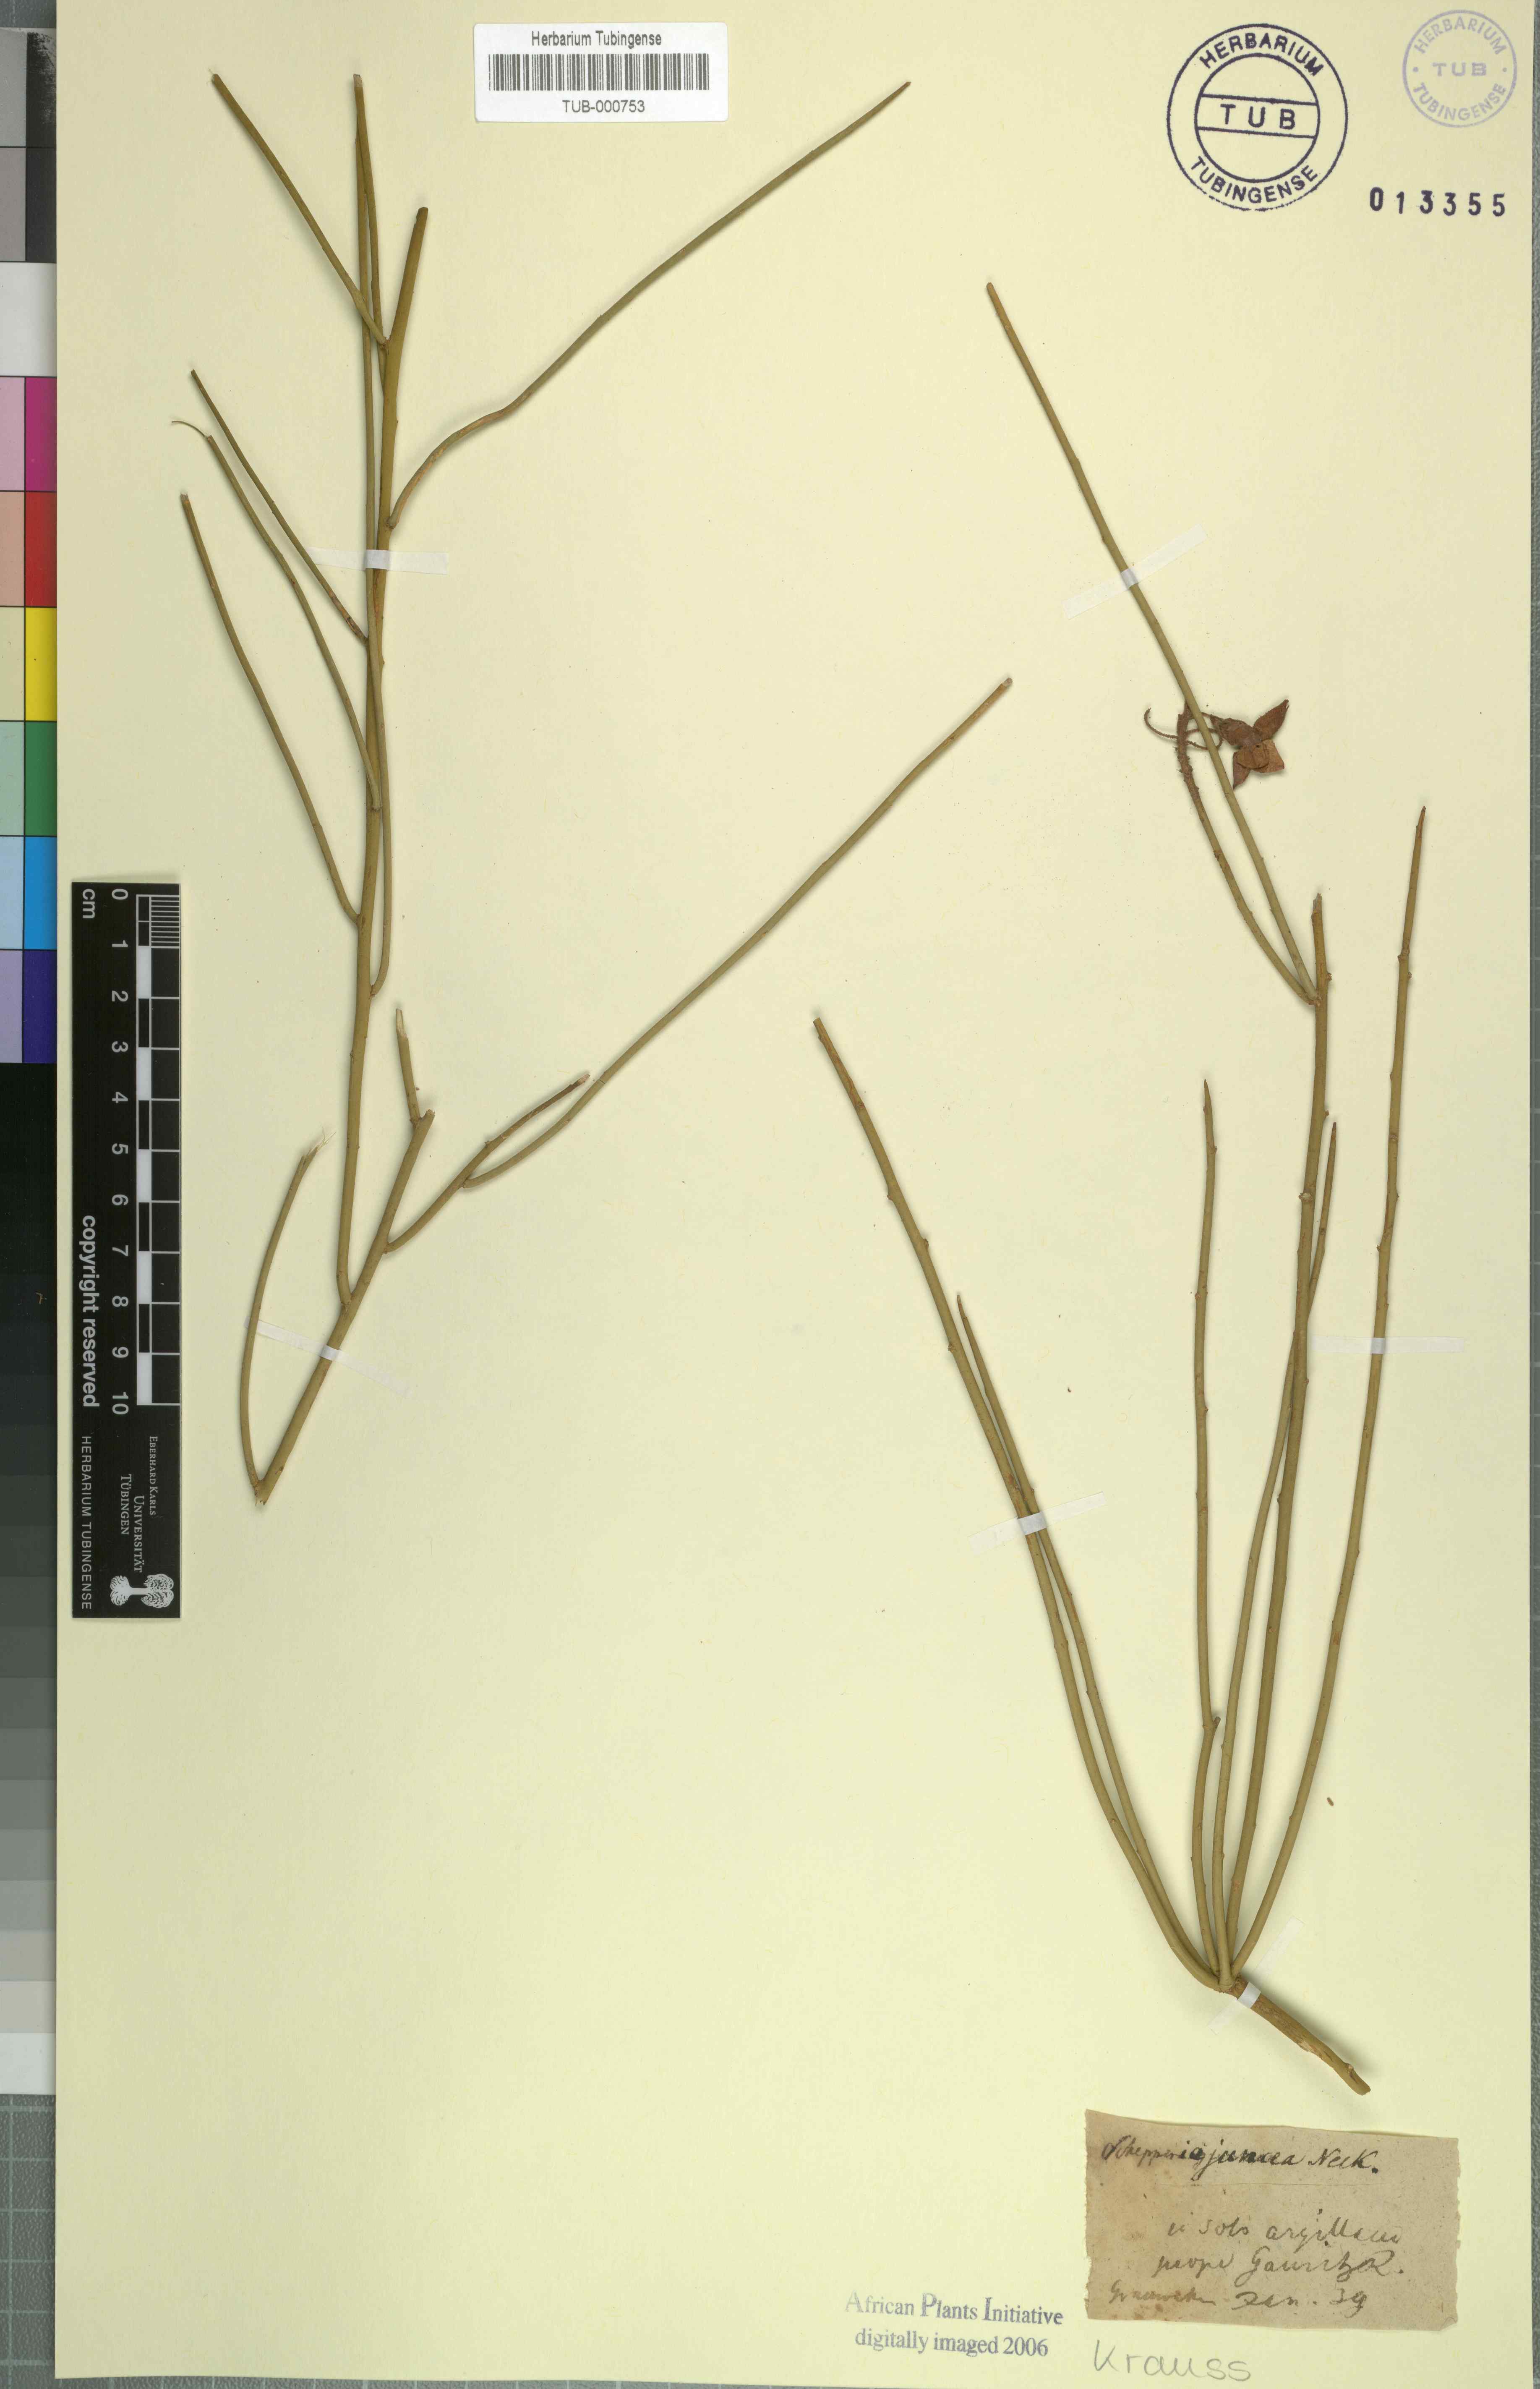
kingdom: Plantae
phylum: Tracheophyta
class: Magnoliopsida
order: Brassicales
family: Capparaceae
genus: Cadaba
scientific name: Cadaba aphylla
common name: Black storm
